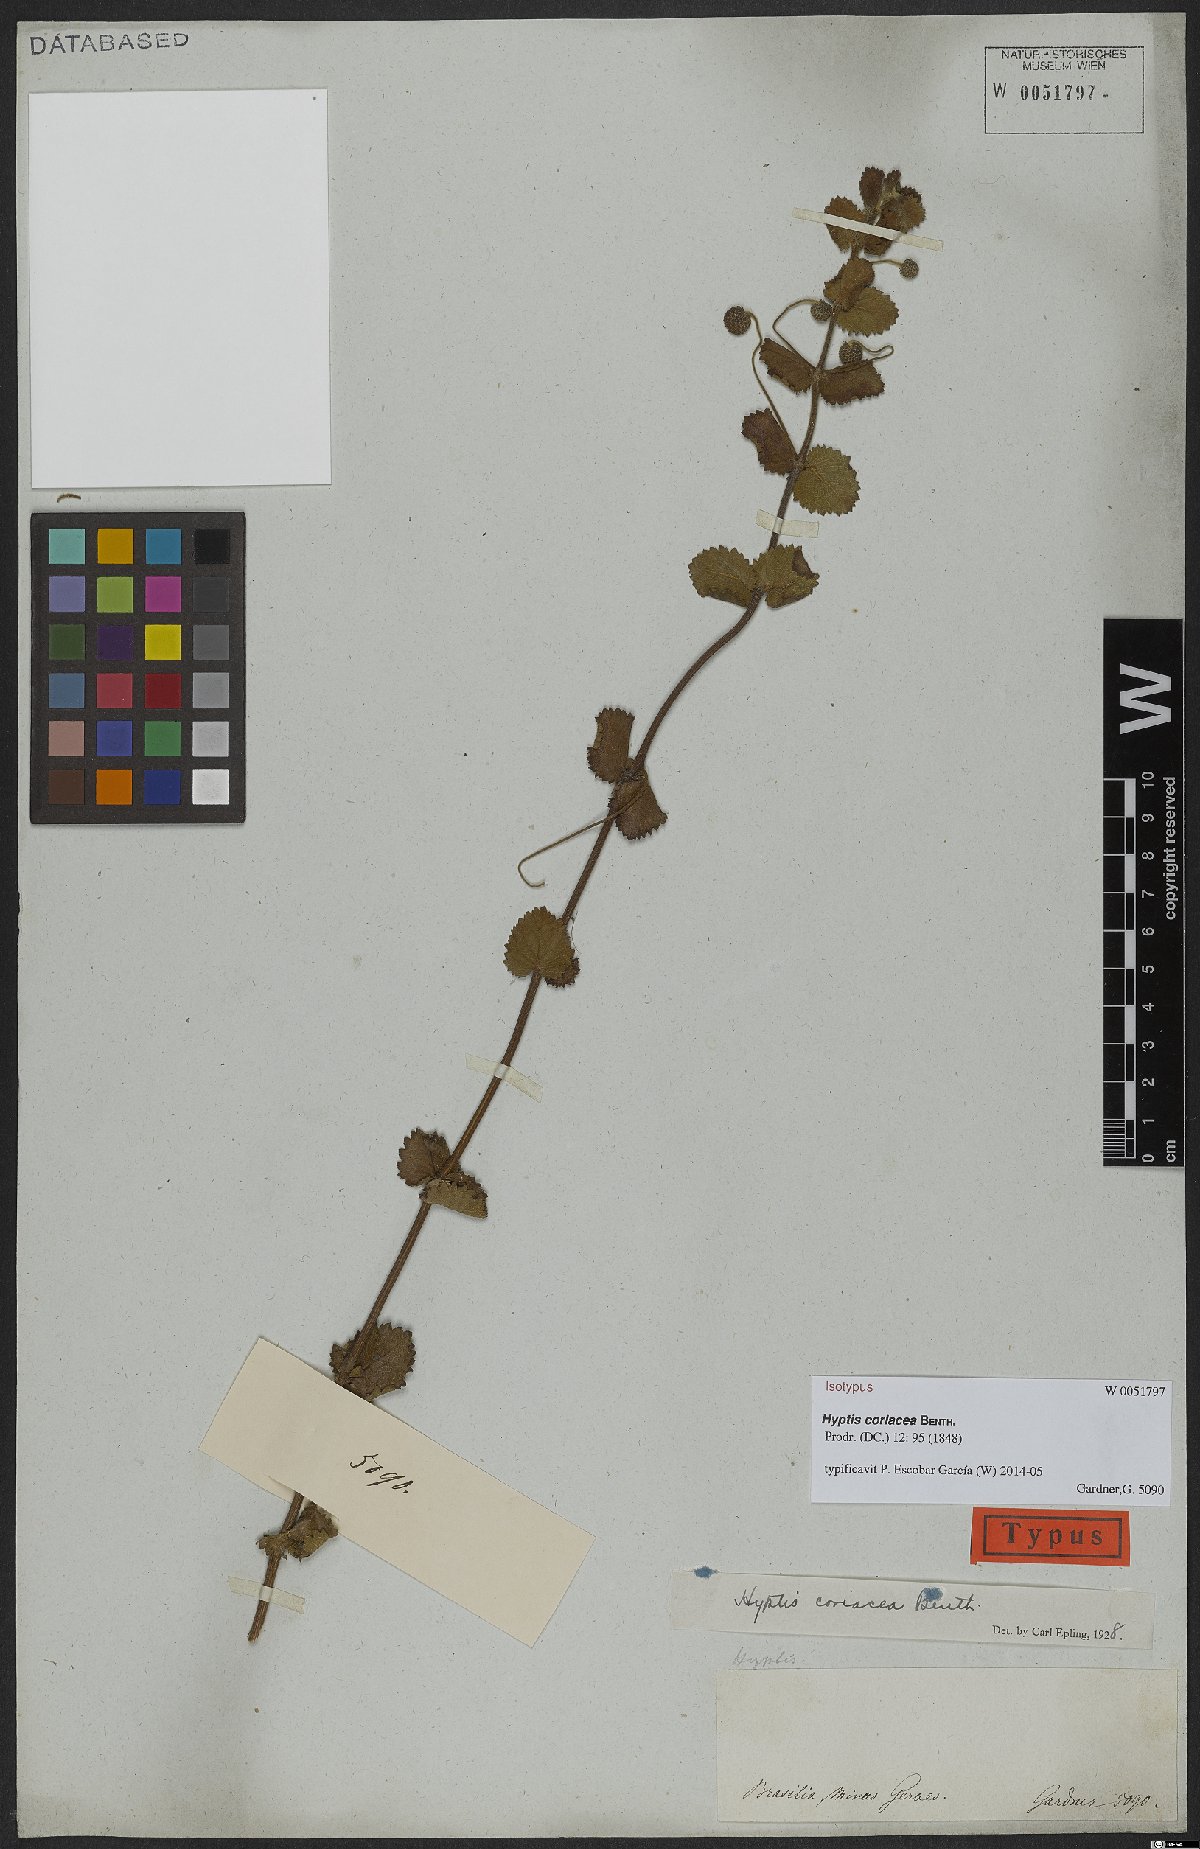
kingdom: Plantae
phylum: Tracheophyta
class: Magnoliopsida
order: Lamiales
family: Lamiaceae
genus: Cyanocephalus
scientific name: Cyanocephalus coriaceus
